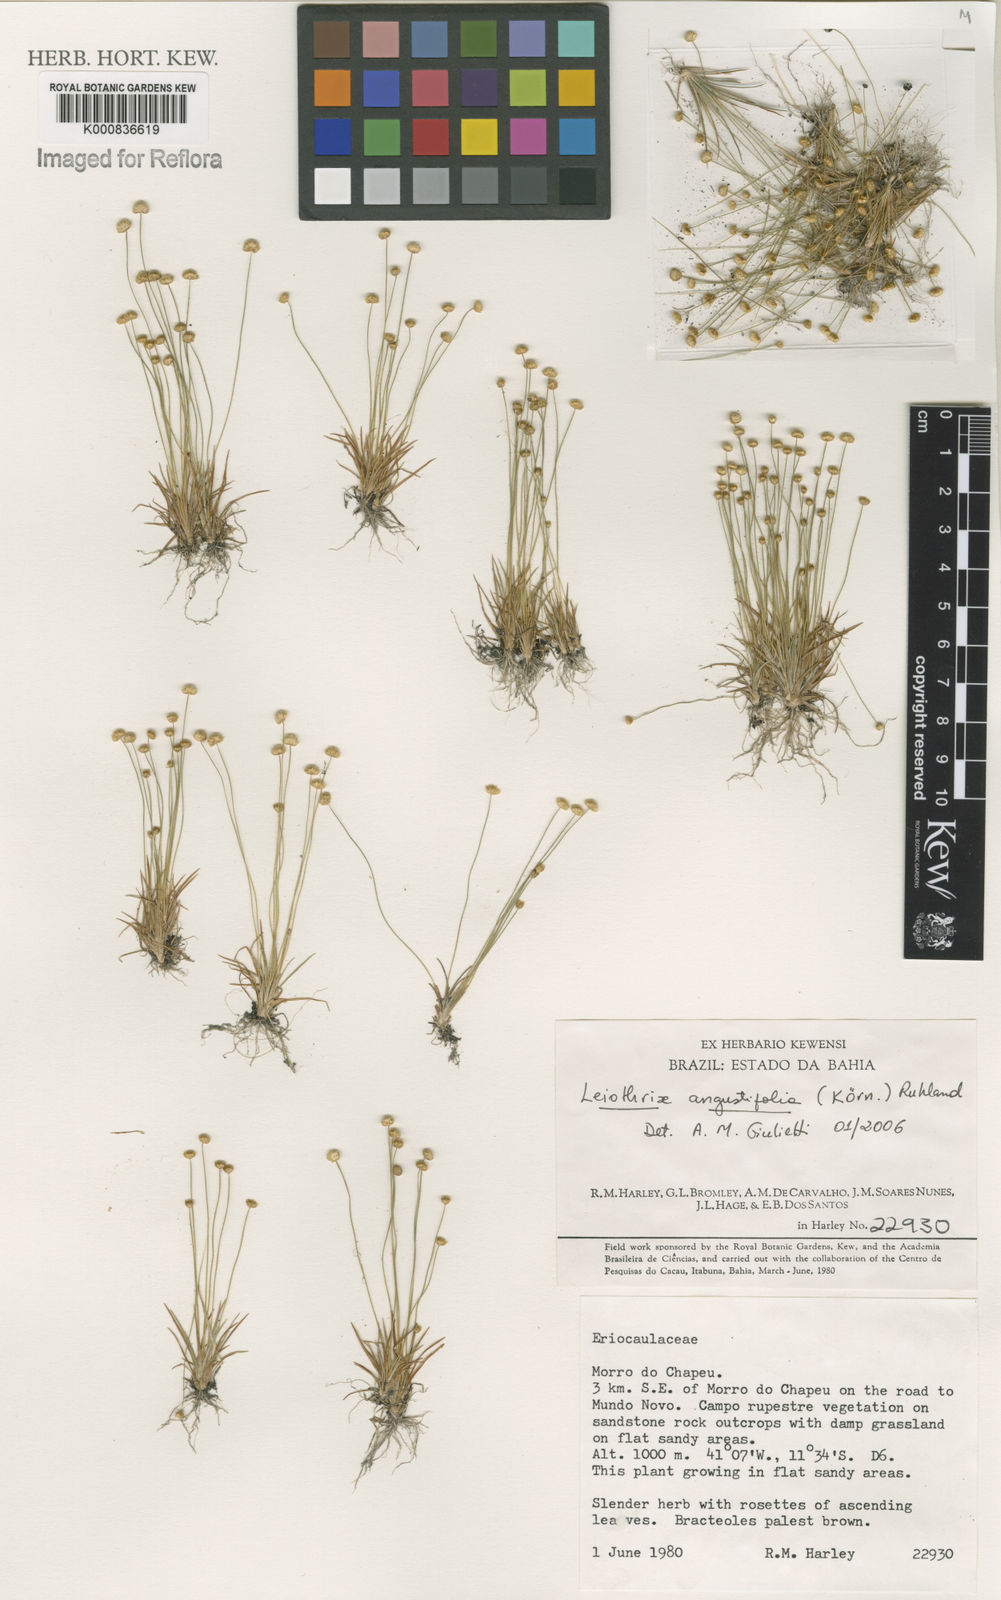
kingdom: Plantae
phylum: Tracheophyta
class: Liliopsida
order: Poales
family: Eriocaulaceae
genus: Leiothrix
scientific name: Leiothrix
